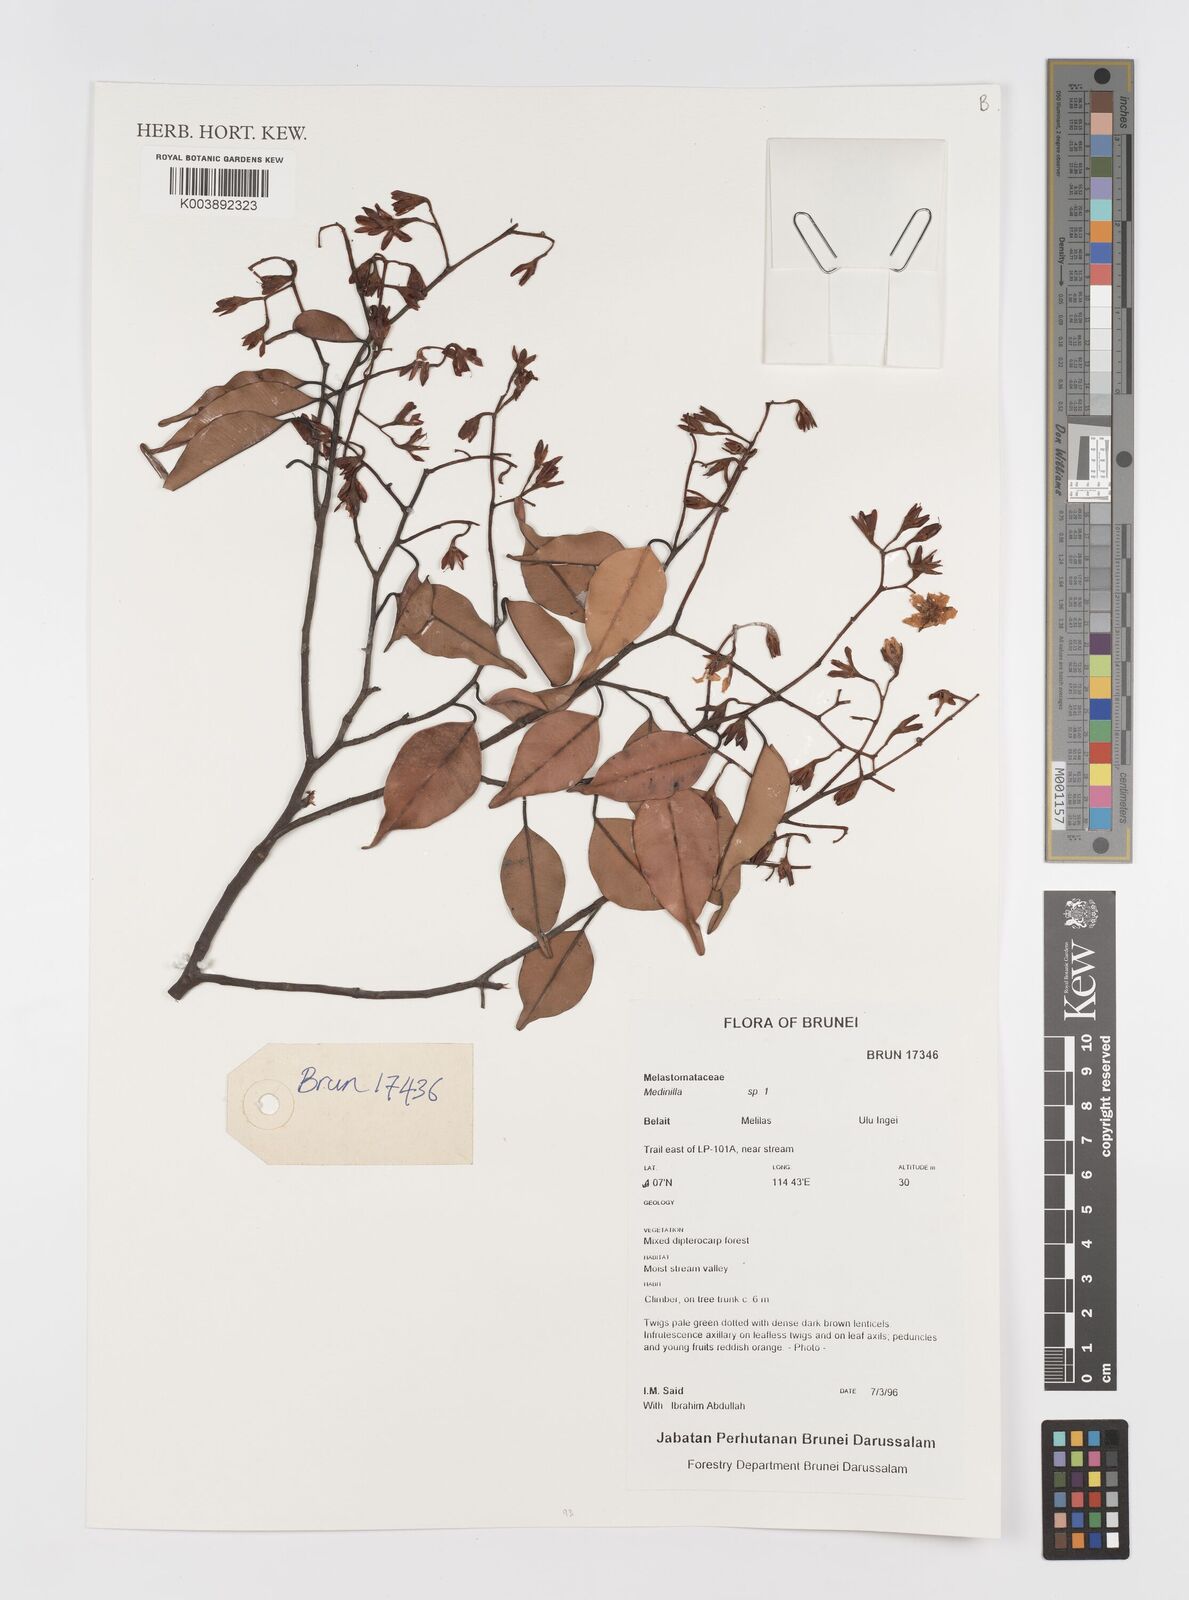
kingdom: Plantae
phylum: Tracheophyta
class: Magnoliopsida
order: Myrtales
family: Melastomataceae
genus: Medinilla
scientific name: Medinilla
